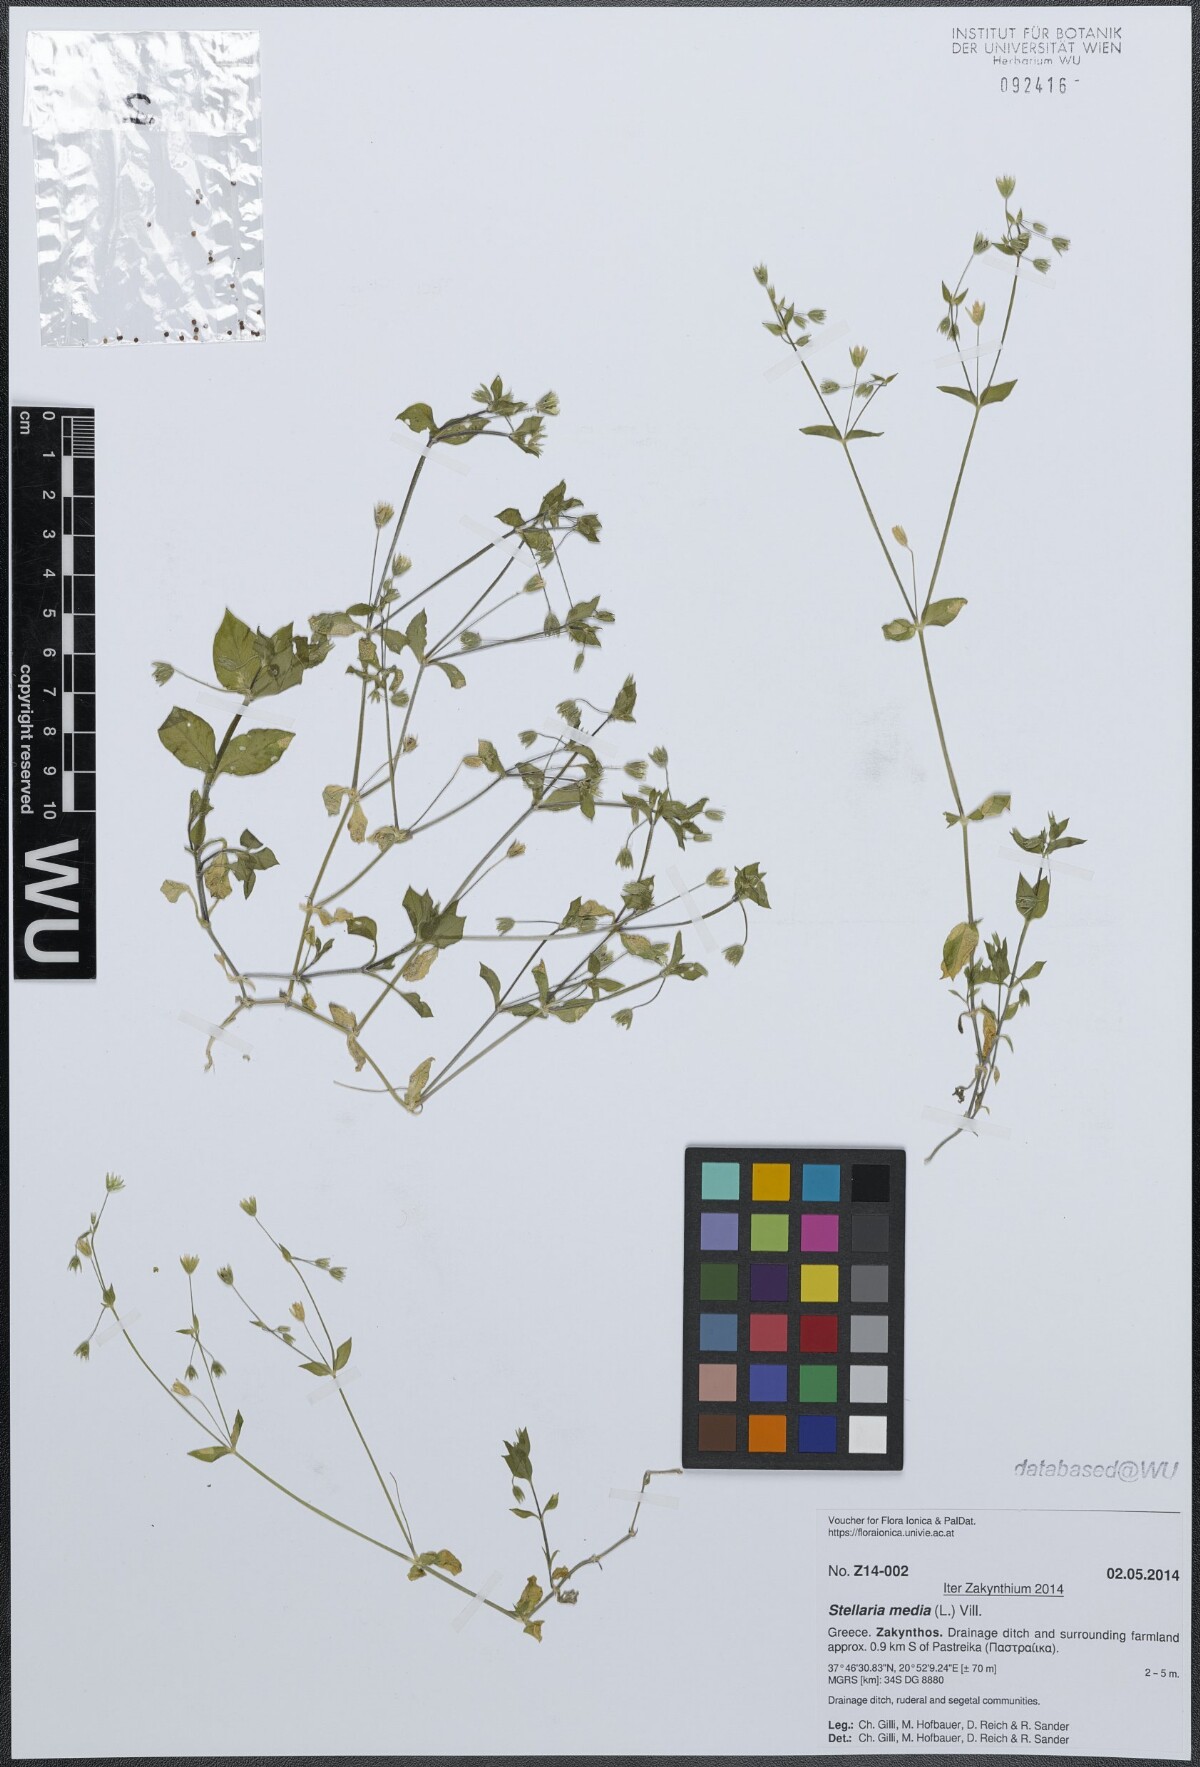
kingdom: Plantae
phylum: Tracheophyta
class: Magnoliopsida
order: Caryophyllales
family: Caryophyllaceae
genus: Stellaria
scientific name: Stellaria media
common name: Common chickweed
